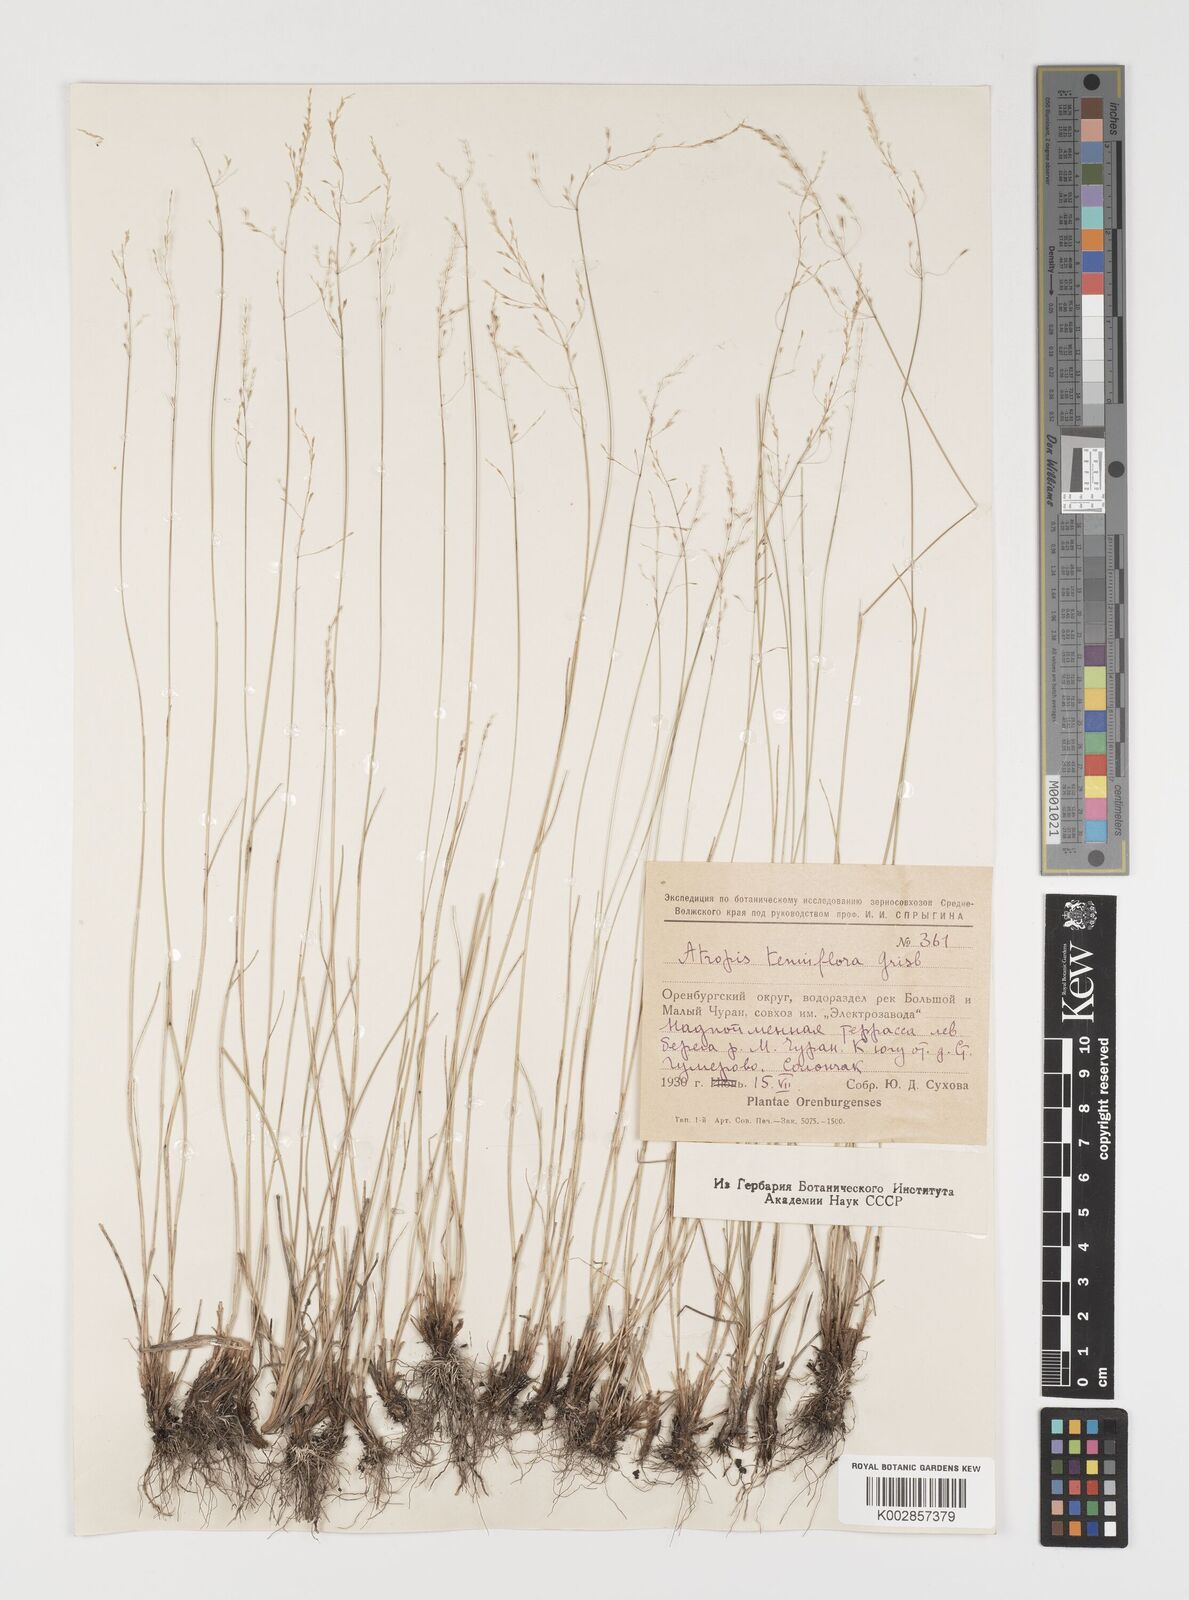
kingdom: Plantae
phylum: Tracheophyta
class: Liliopsida
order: Poales
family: Poaceae
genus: Puccinellia
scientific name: Puccinellia tenuiflora
